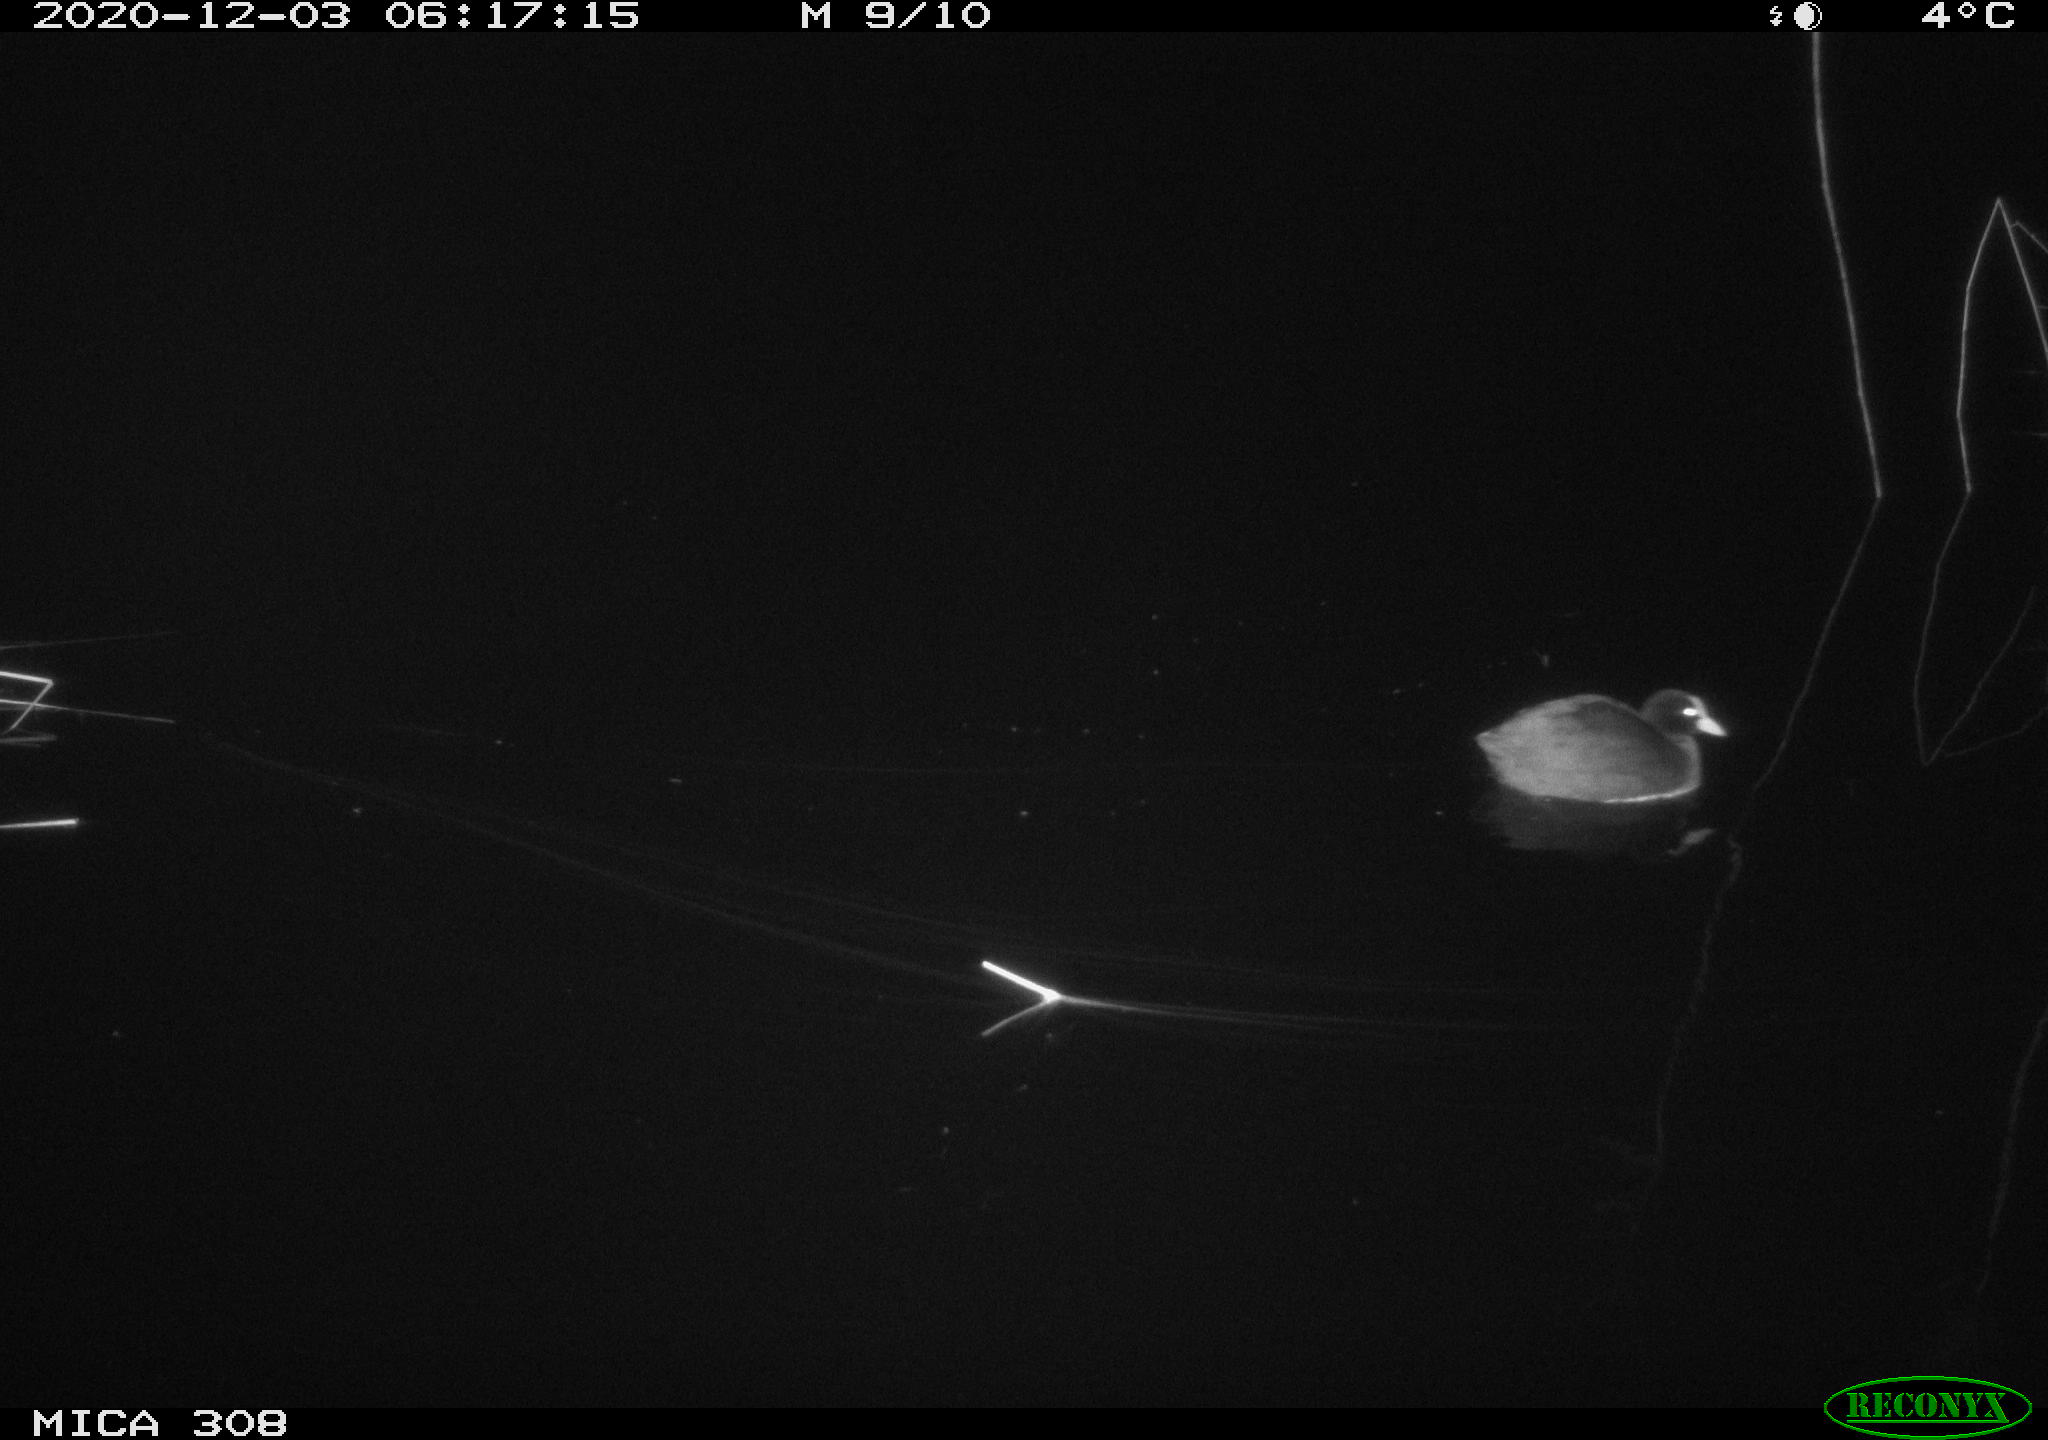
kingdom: Animalia
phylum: Chordata
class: Aves
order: Gruiformes
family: Rallidae
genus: Fulica
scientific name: Fulica atra
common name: Eurasian coot
